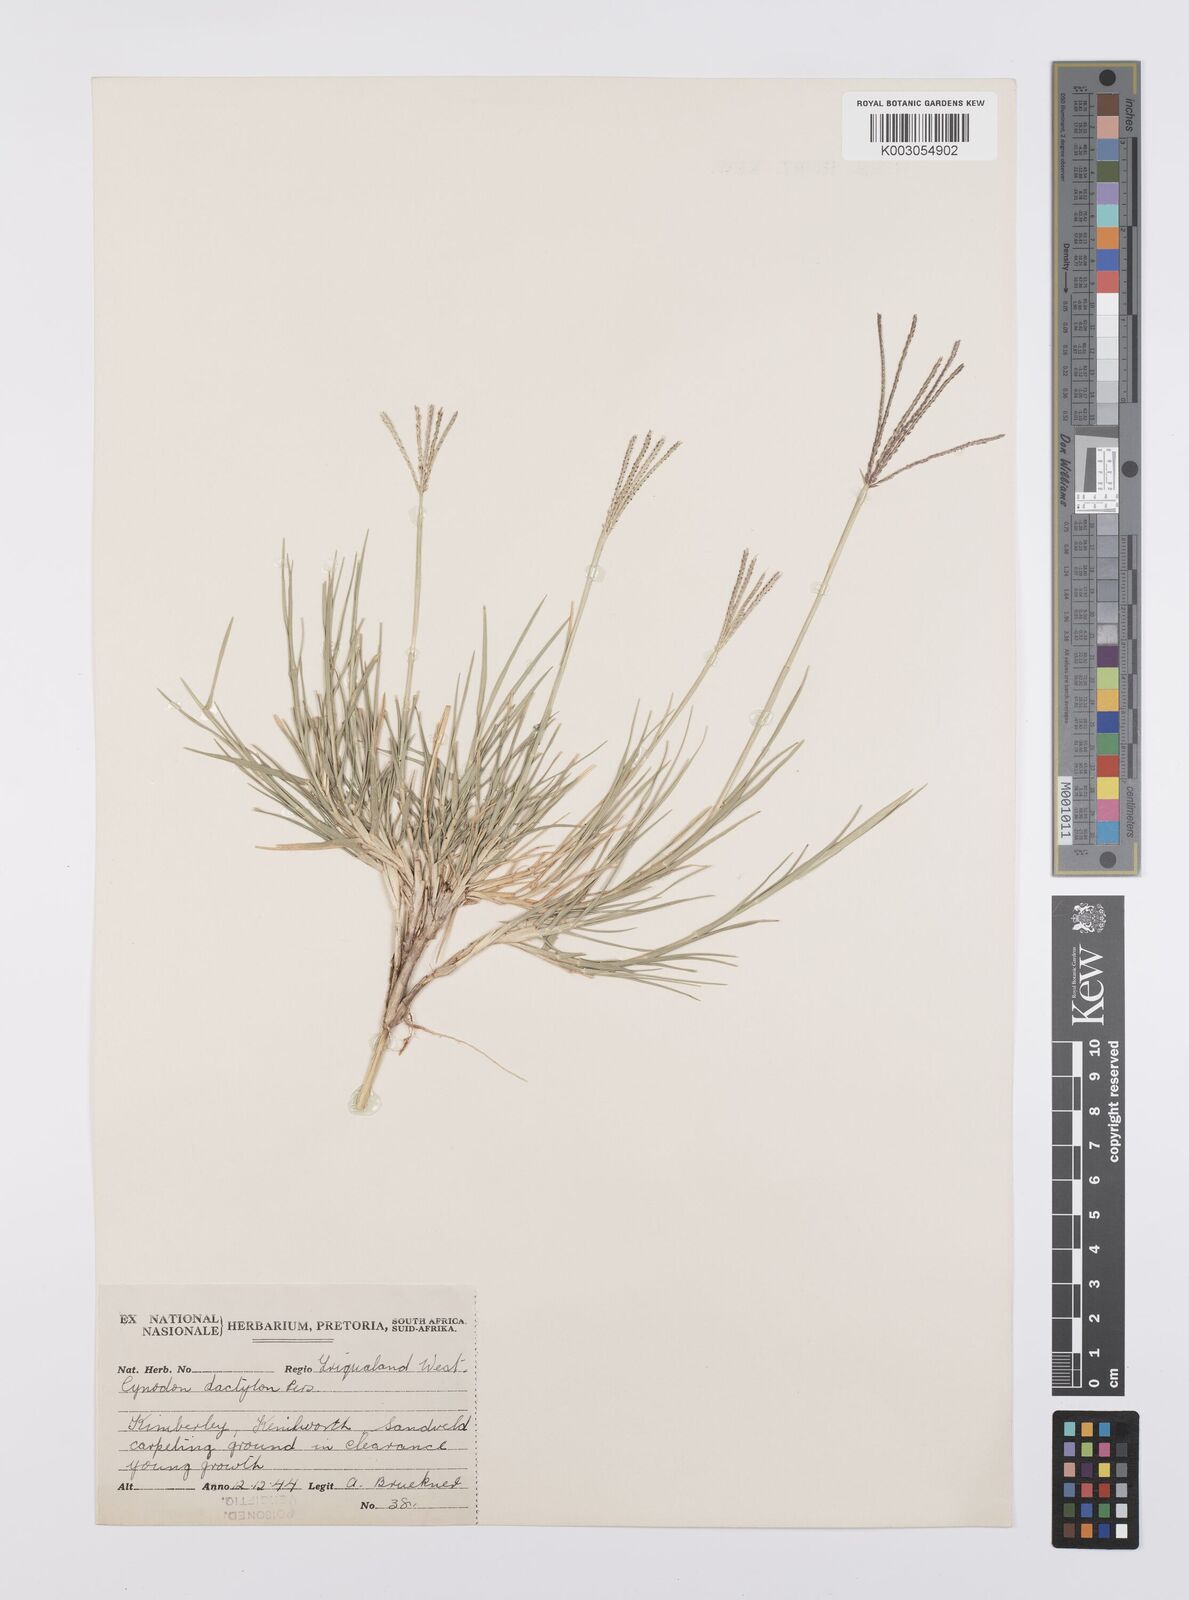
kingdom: Plantae
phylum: Tracheophyta
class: Liliopsida
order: Poales
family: Poaceae
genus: Cynodon
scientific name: Cynodon dactylon
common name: Bermuda grass
